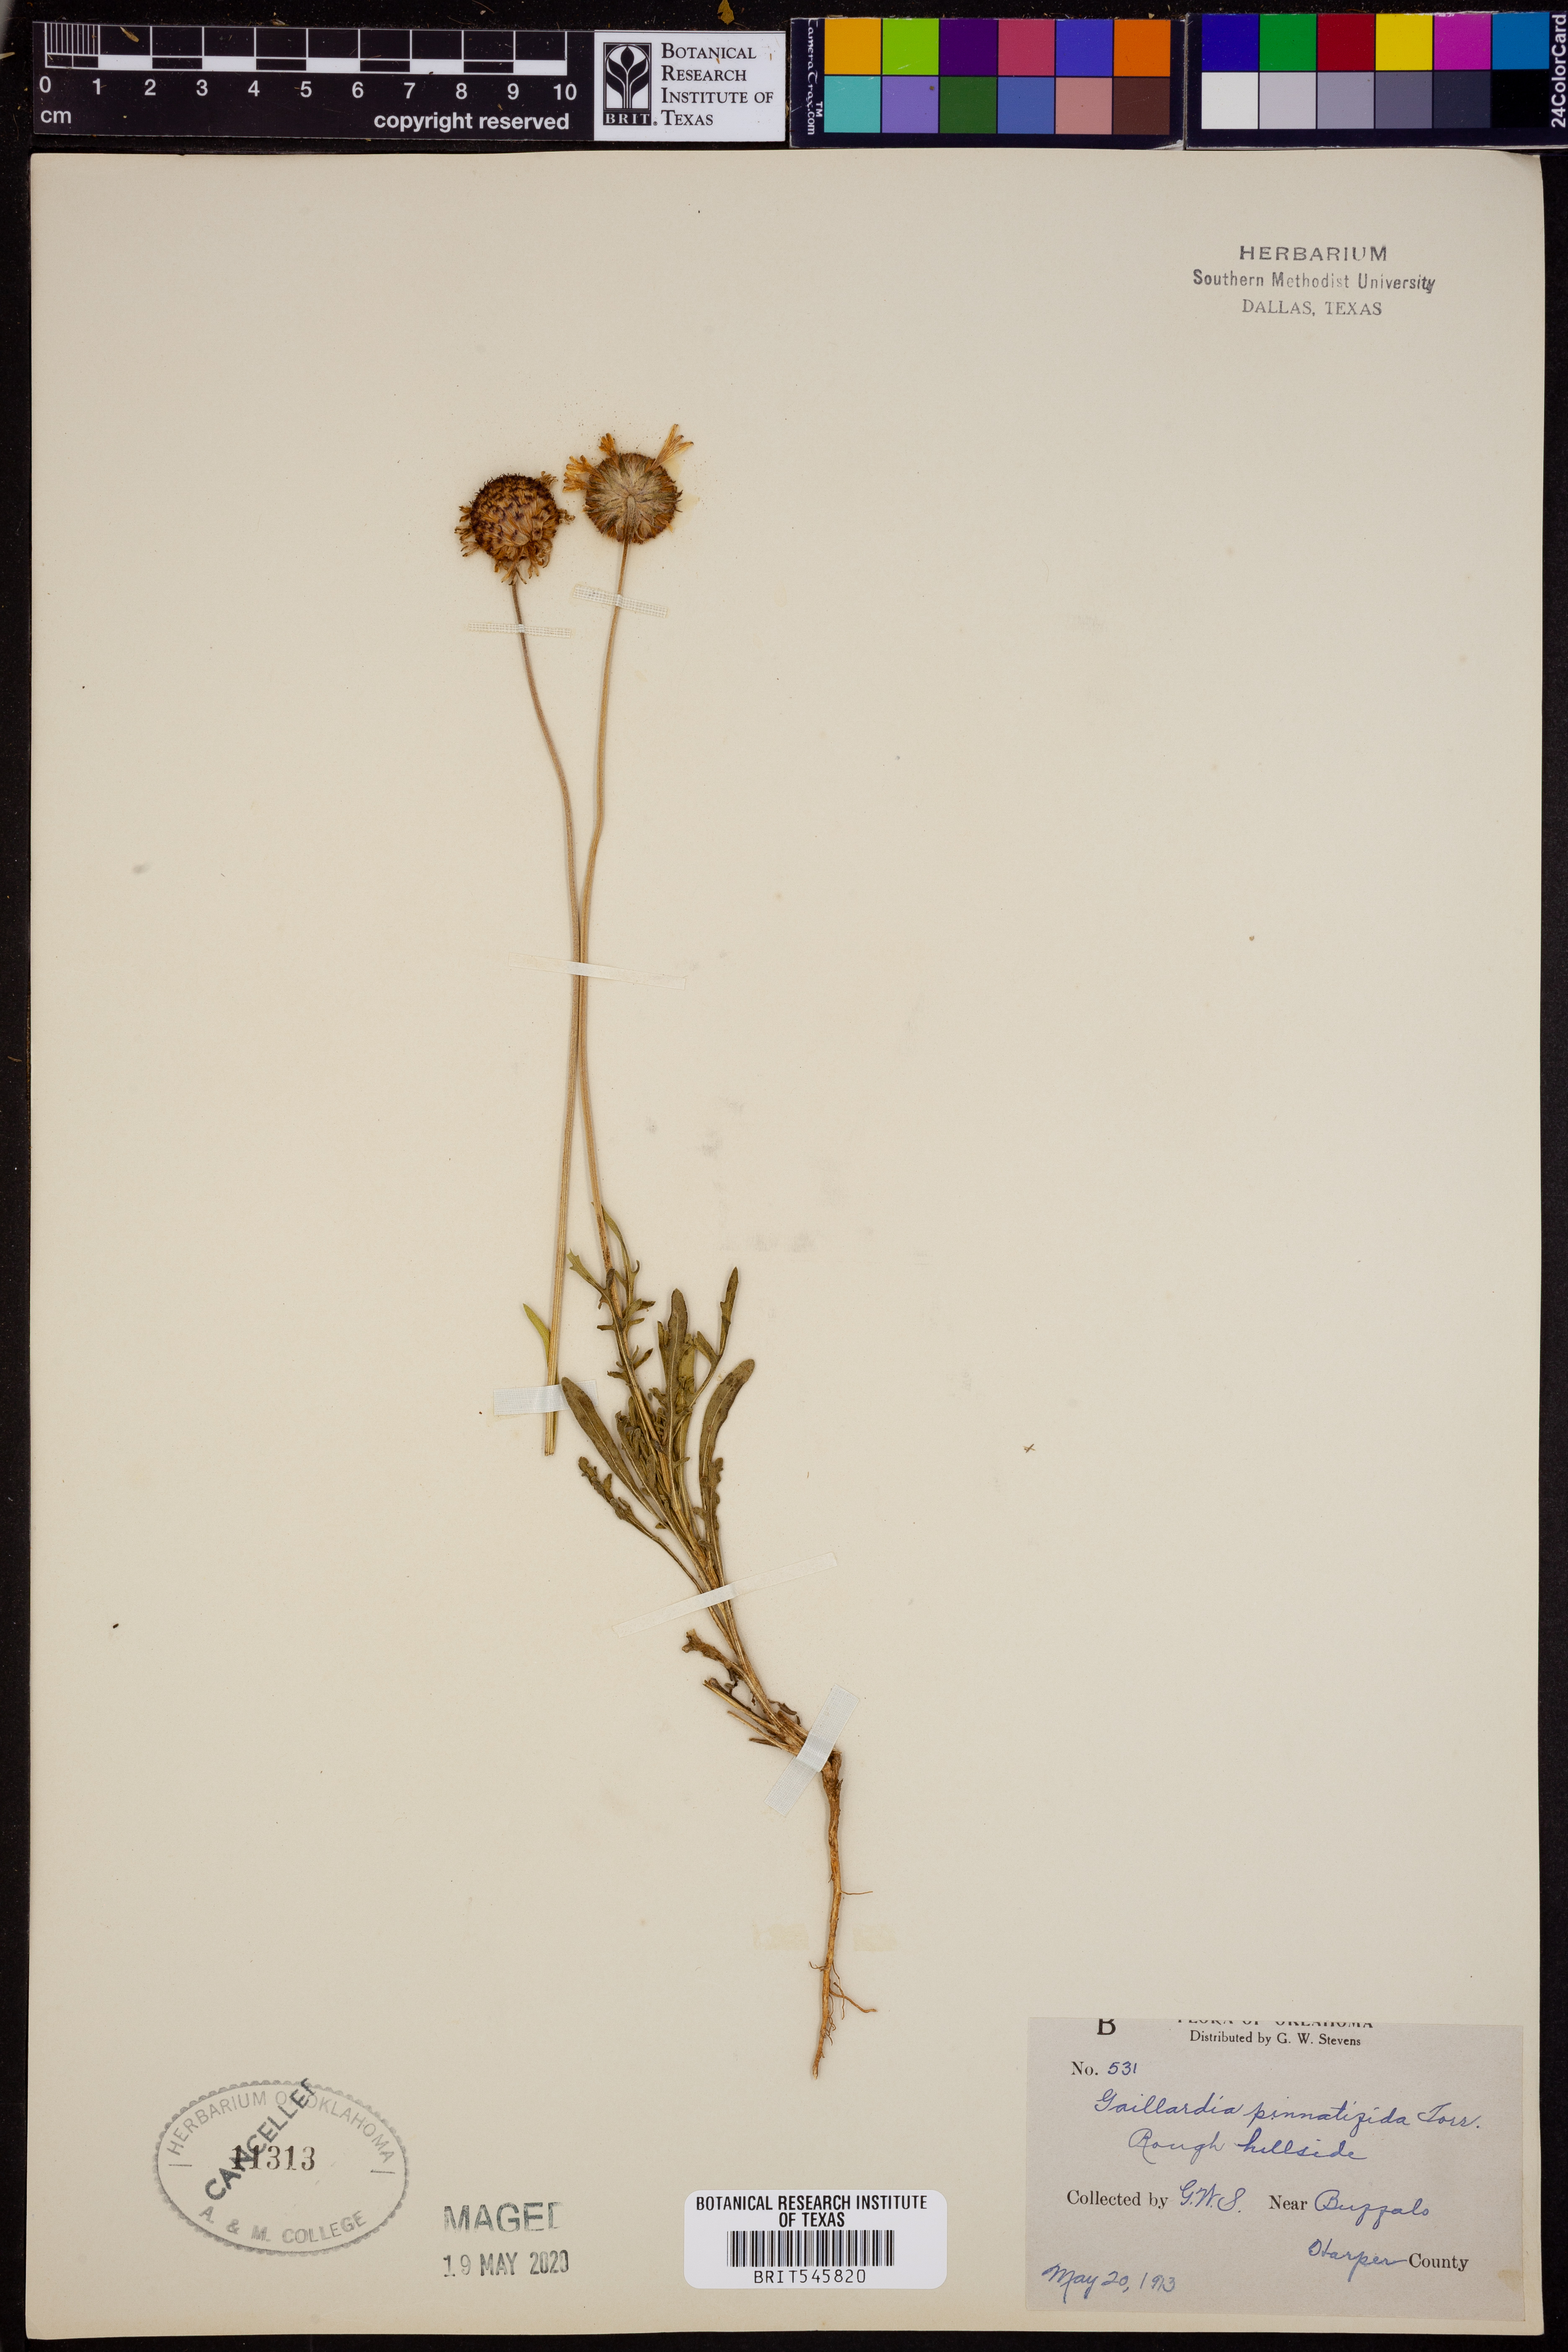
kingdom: Plantae
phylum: Tracheophyta
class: Magnoliopsida
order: Asterales
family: Asteraceae
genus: Gaillardia
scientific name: Gaillardia pinnatifida
